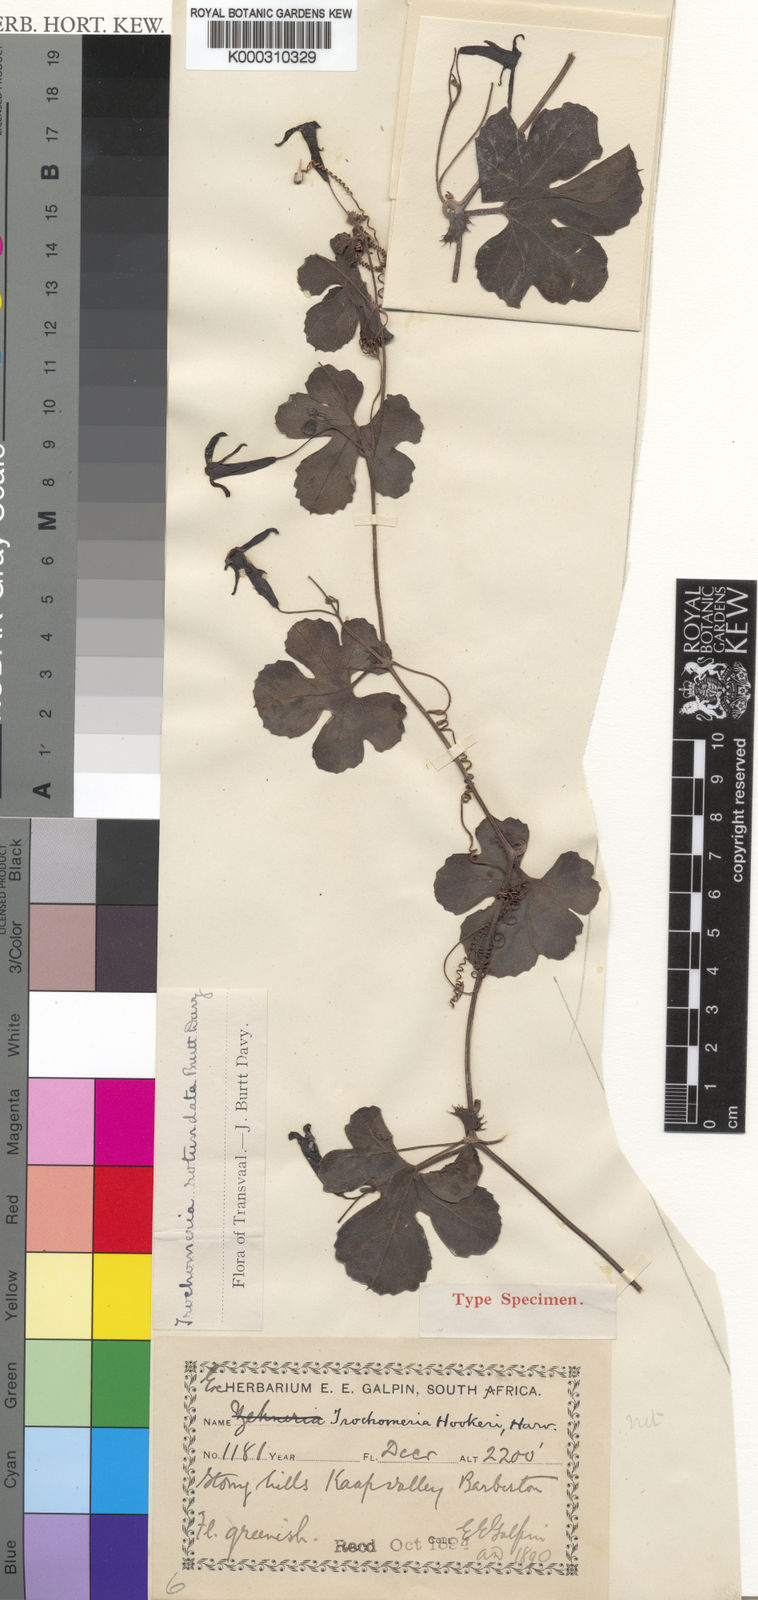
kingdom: Plantae
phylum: Tracheophyta
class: Magnoliopsida
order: Cucurbitales
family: Cucurbitaceae
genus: Trochomeria
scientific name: Trochomeria hookeri
